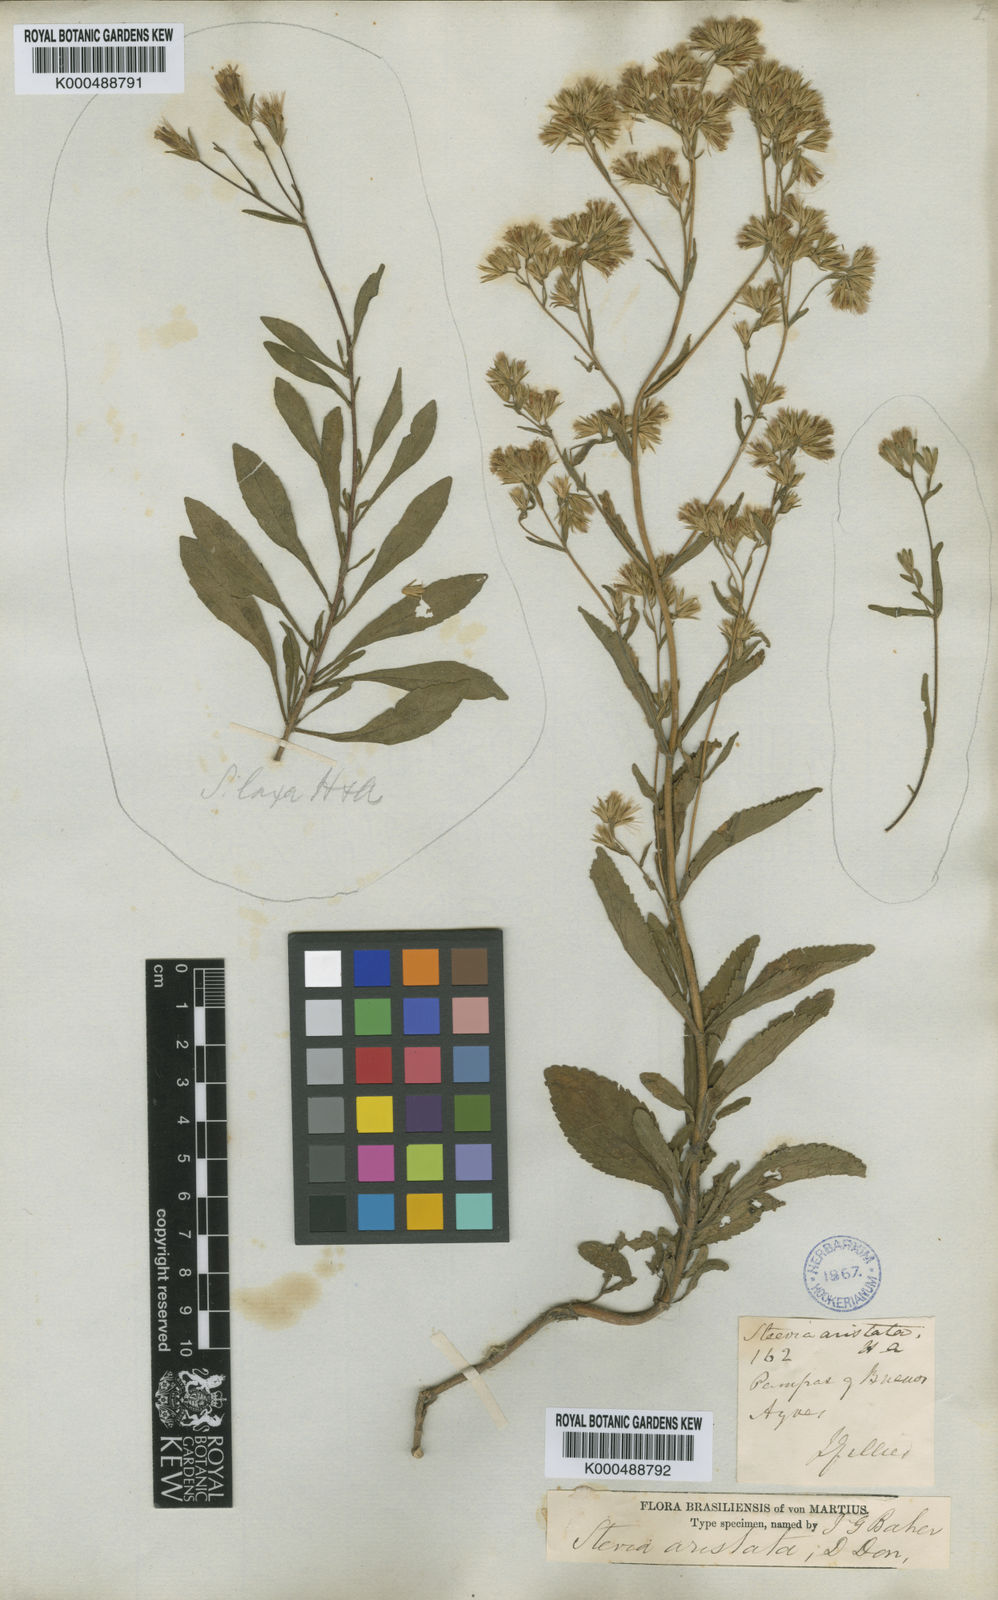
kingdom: Plantae
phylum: Tracheophyta
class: Magnoliopsida
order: Asterales
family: Asteraceae
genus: Stevia
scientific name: Stevia aristata
